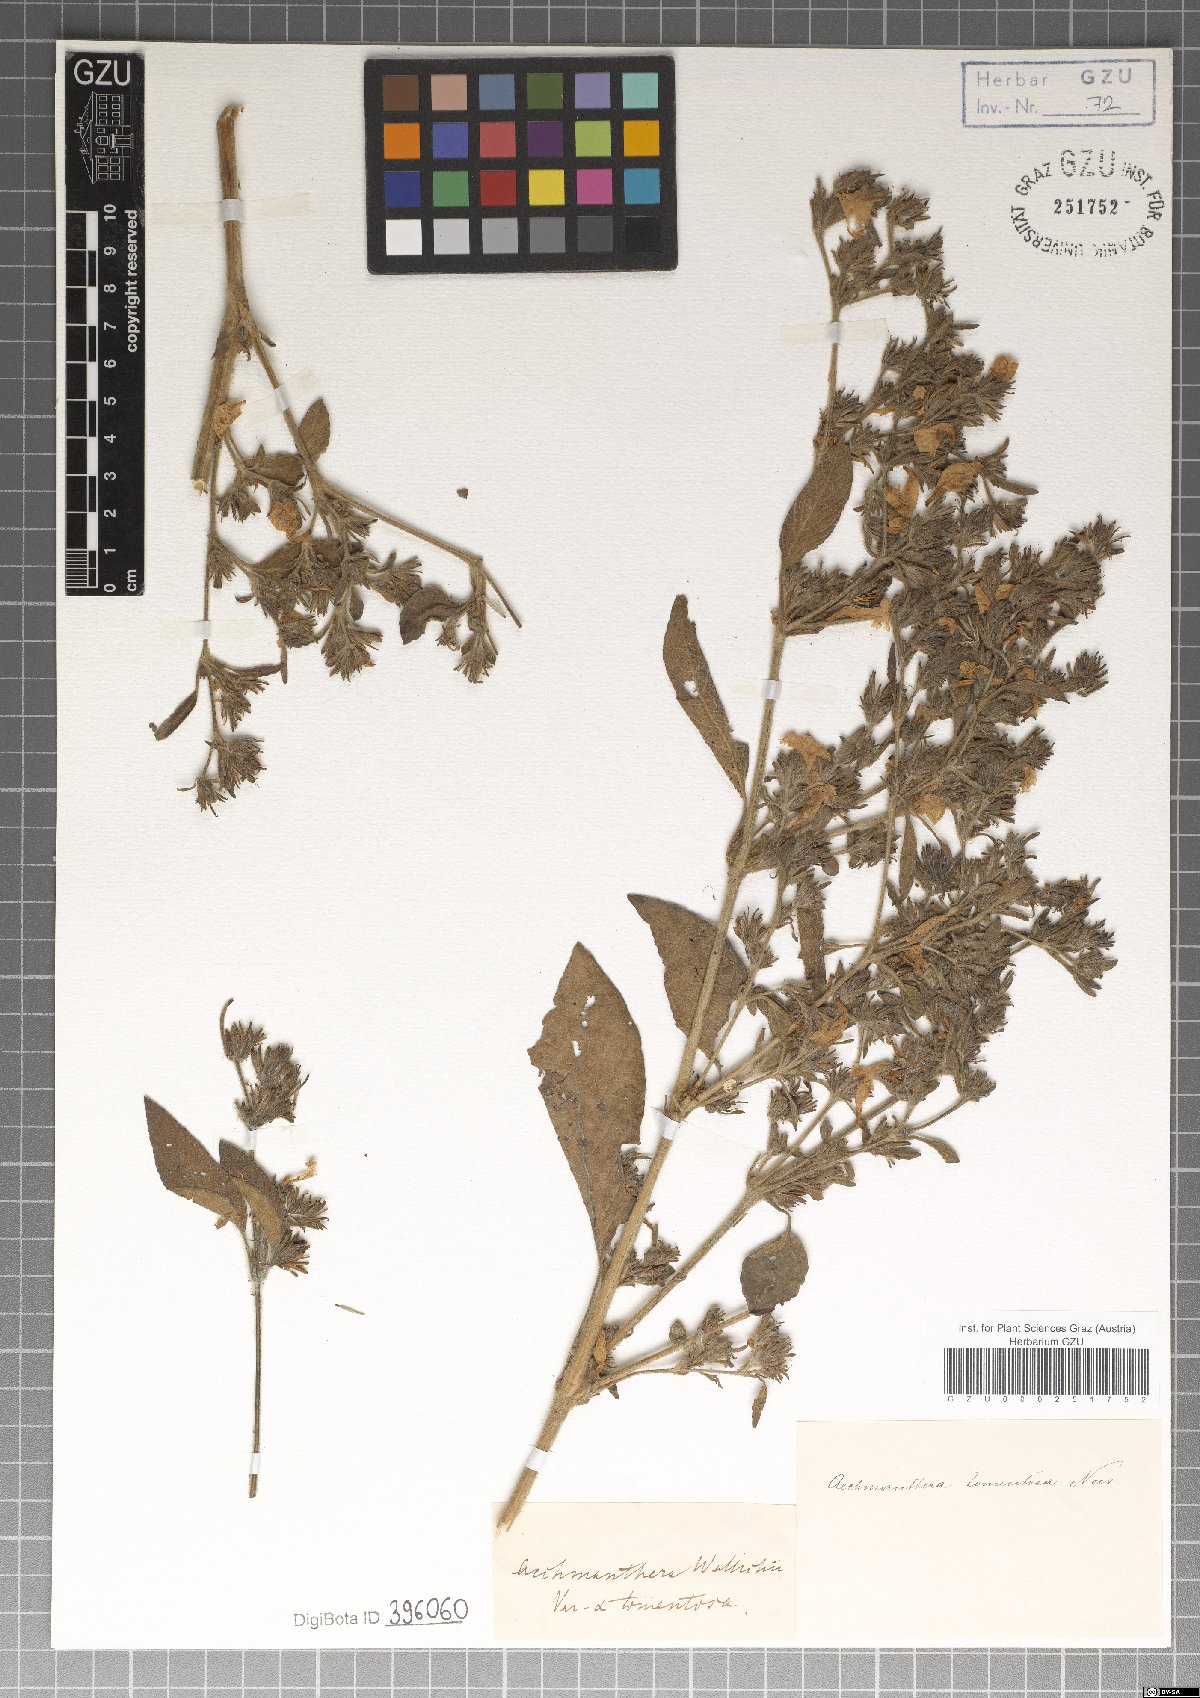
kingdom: Plantae
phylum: Tracheophyta
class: Magnoliopsida
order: Lamiales
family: Acanthaceae
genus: Strobilanthes
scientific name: Strobilanthes tomentosa
